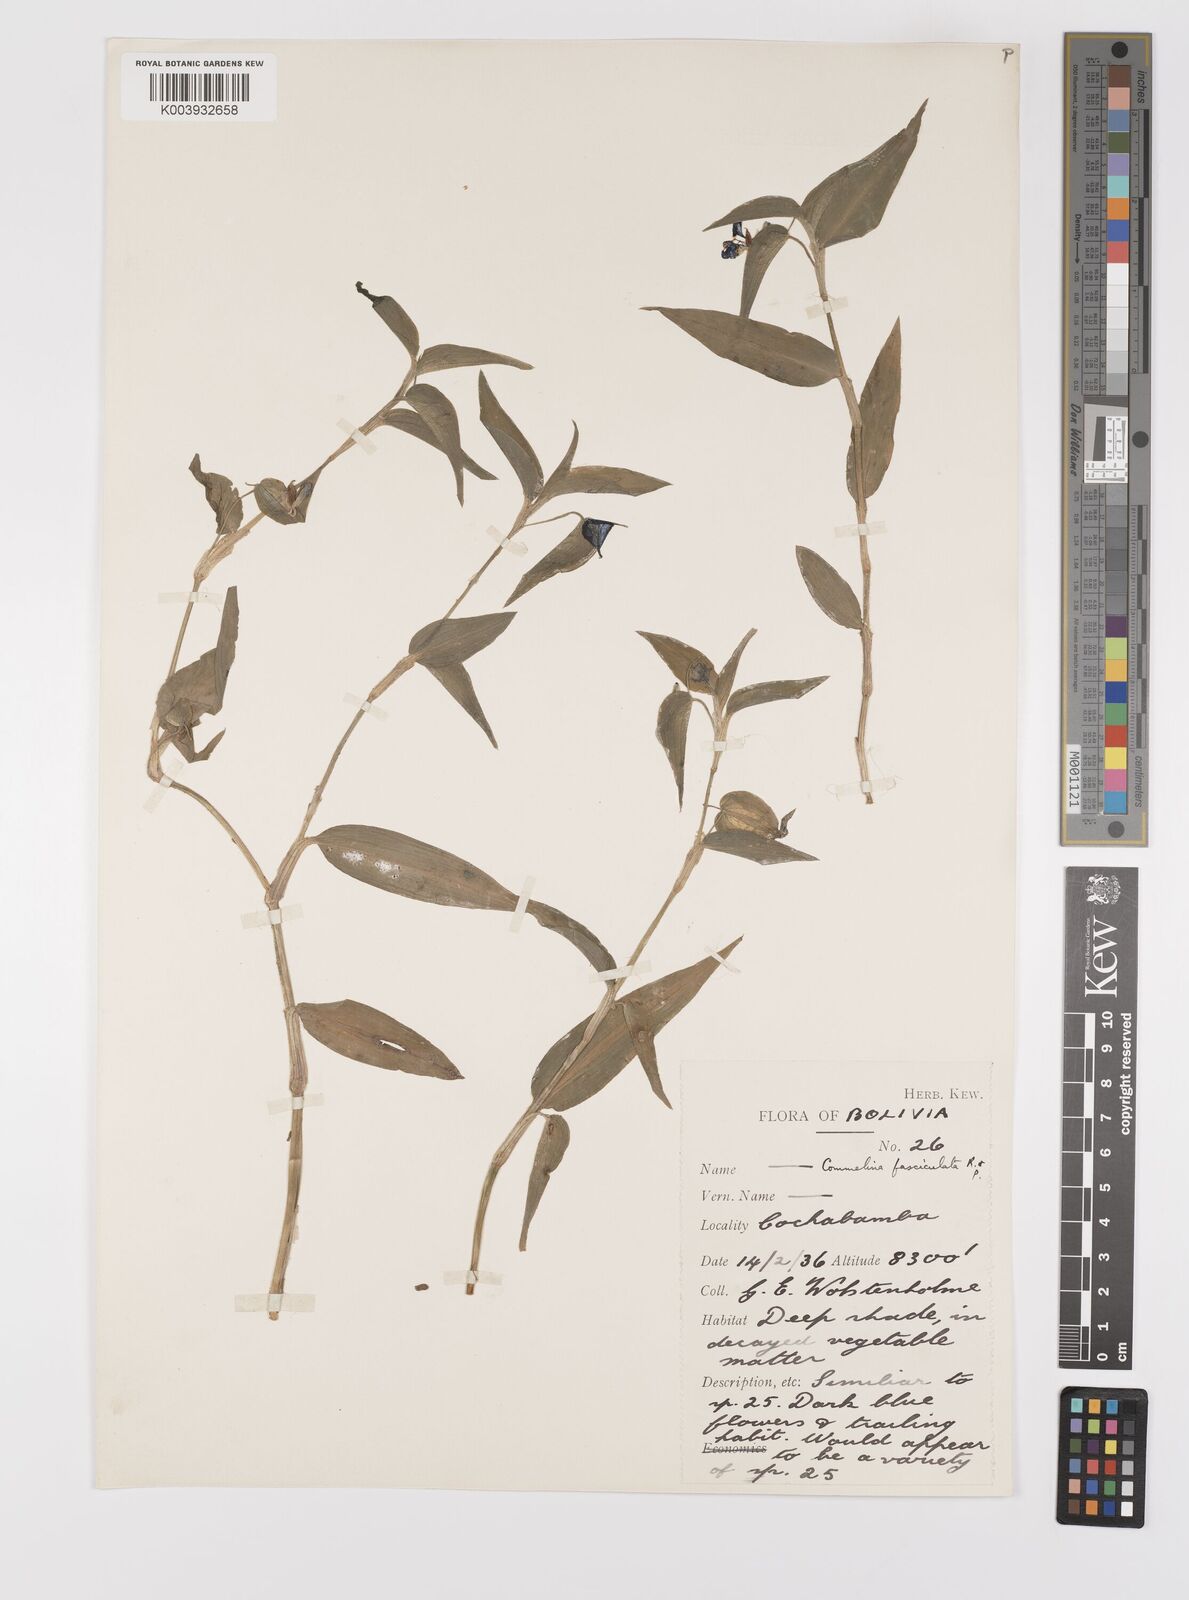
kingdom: Plantae
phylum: Tracheophyta
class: Liliopsida
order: Commelinales
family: Commelinaceae
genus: Commelina
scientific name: Commelina tuberosa
